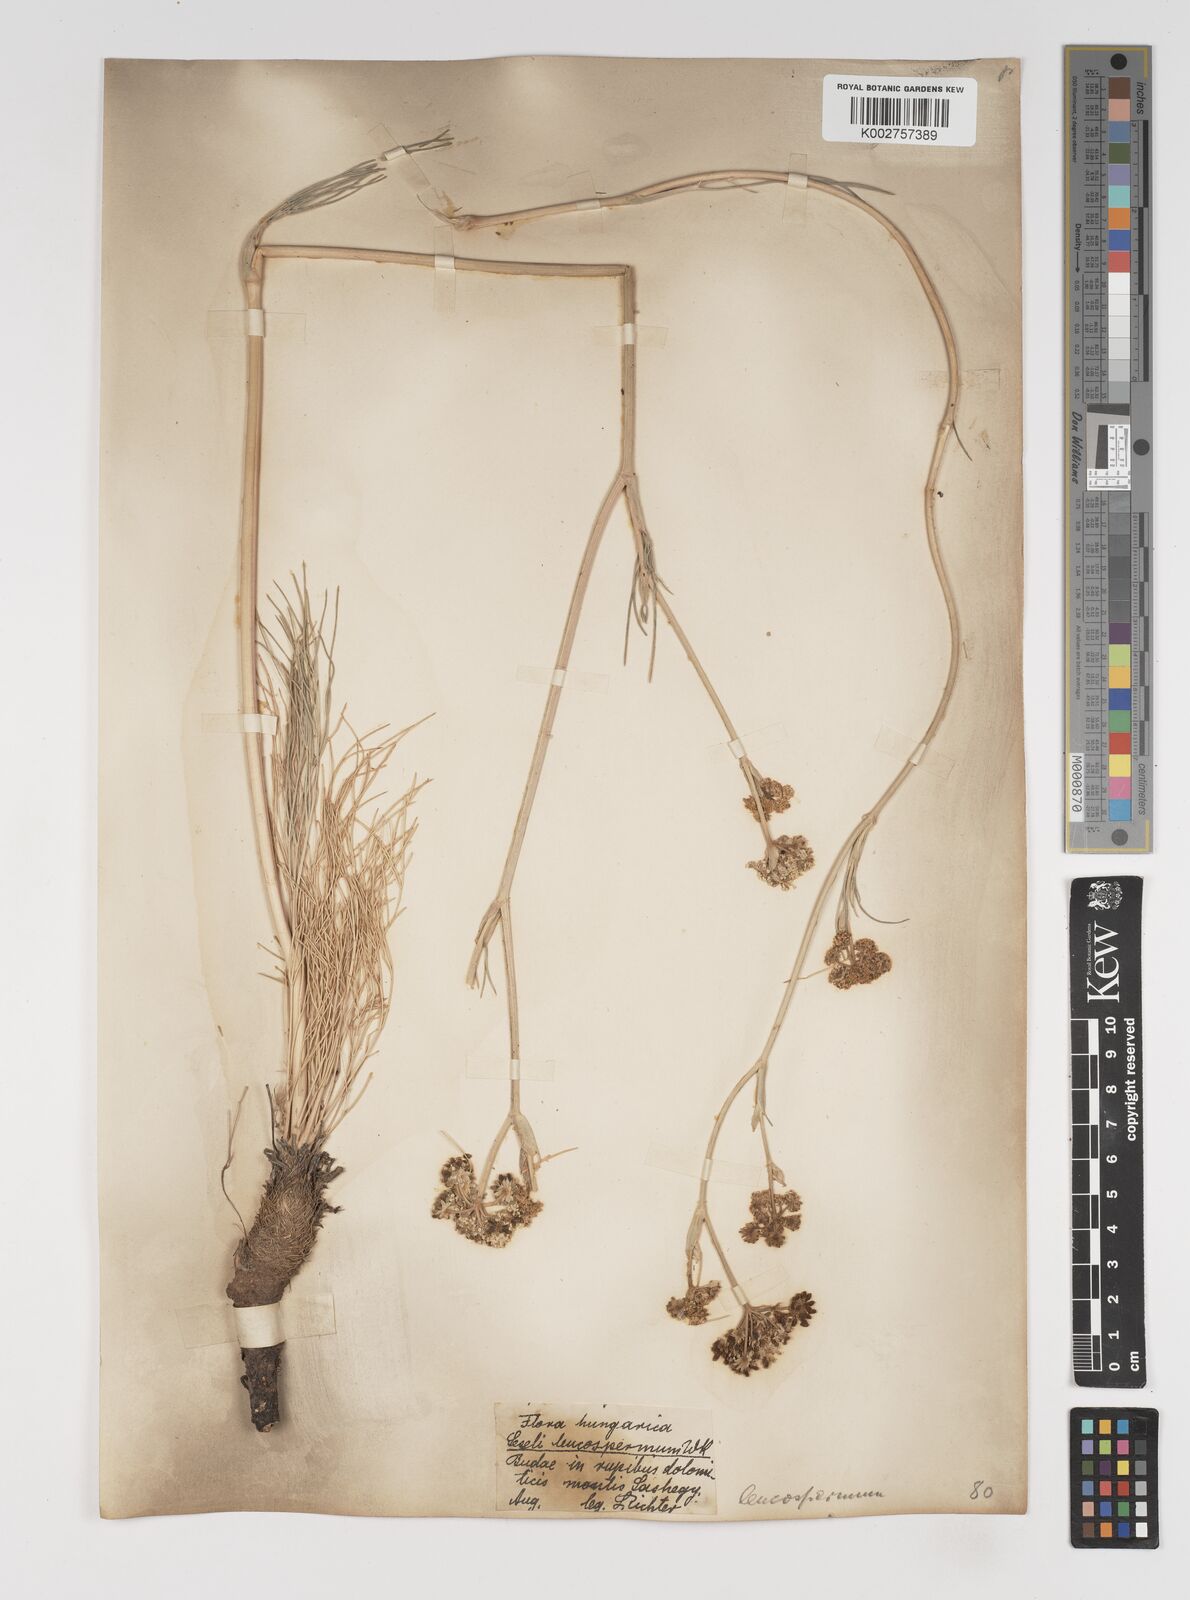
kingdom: Plantae
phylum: Tracheophyta
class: Magnoliopsida
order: Apiales
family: Apiaceae
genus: Seseli
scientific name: Seseli leucospermum
